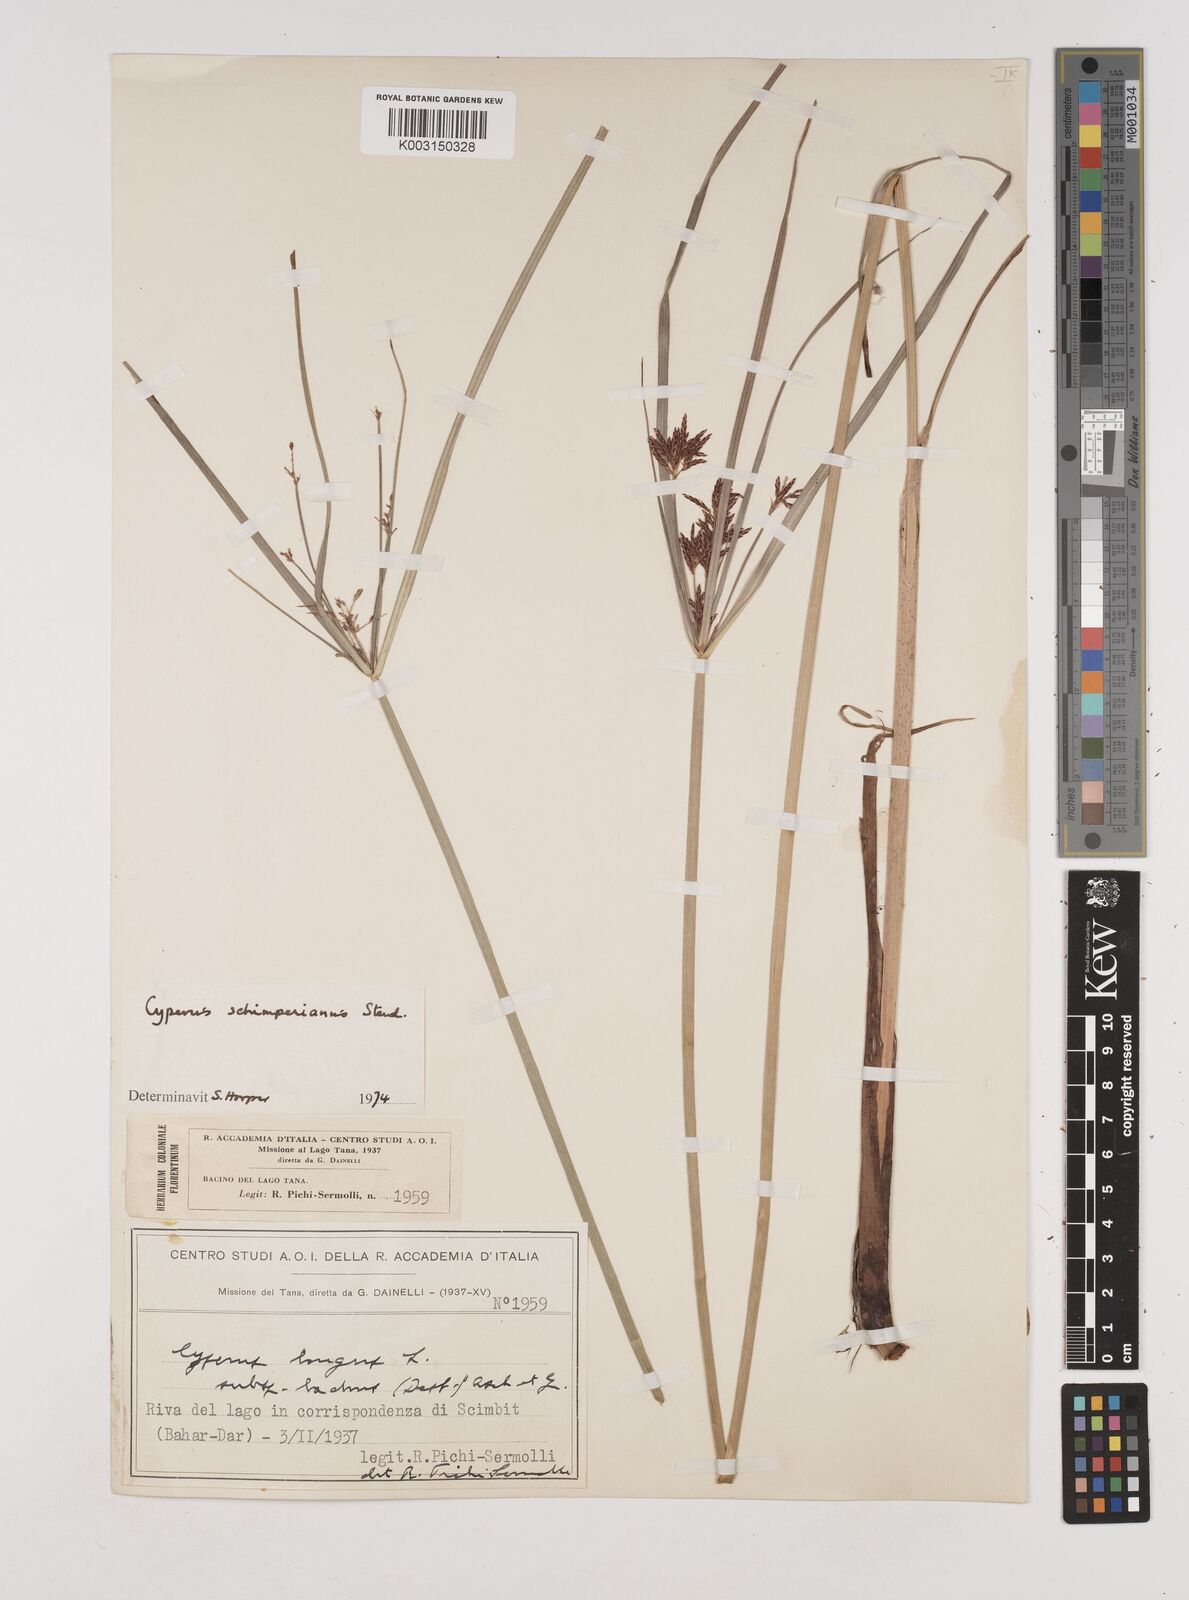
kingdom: Plantae
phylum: Tracheophyta
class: Liliopsida
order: Poales
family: Cyperaceae
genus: Cyperus
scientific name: Cyperus schimperianus
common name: Schimper flatsedge
